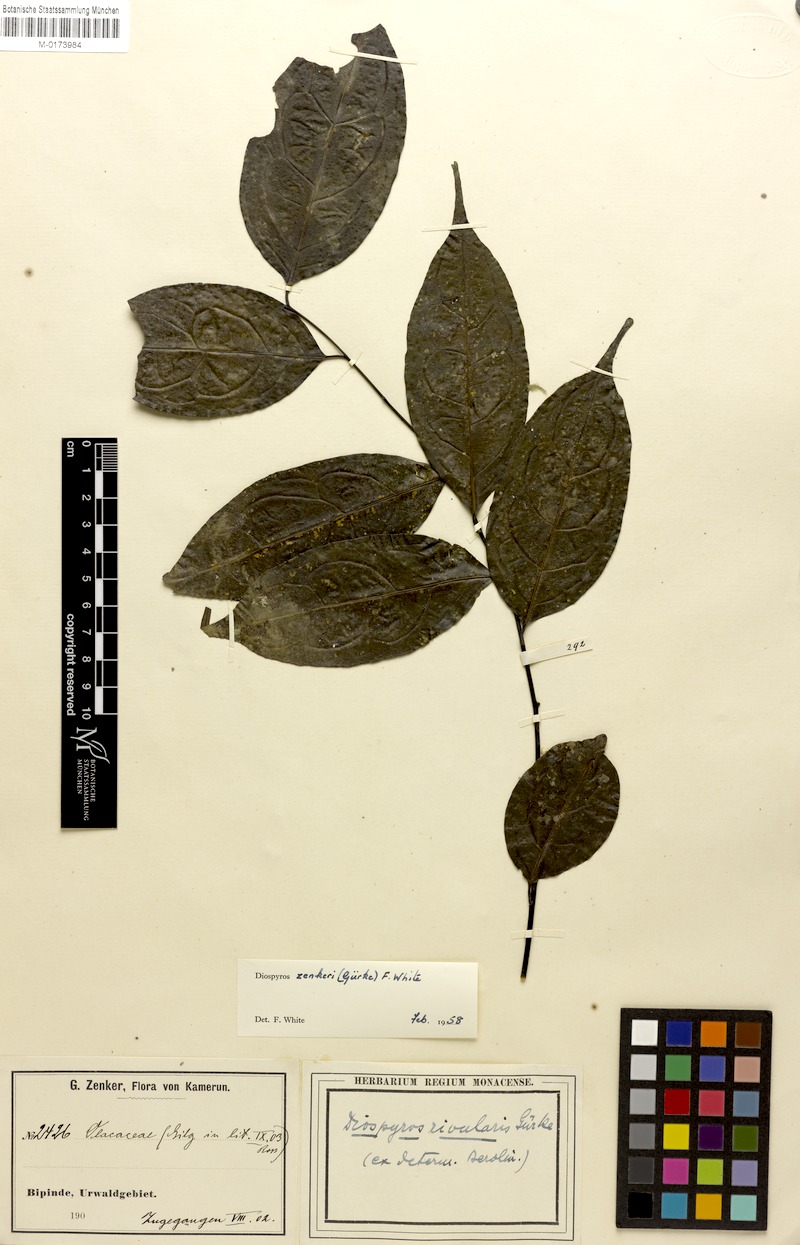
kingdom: Plantae
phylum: Tracheophyta
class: Magnoliopsida
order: Ericales
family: Ebenaceae
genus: Diospyros
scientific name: Diospyros zenkeri
